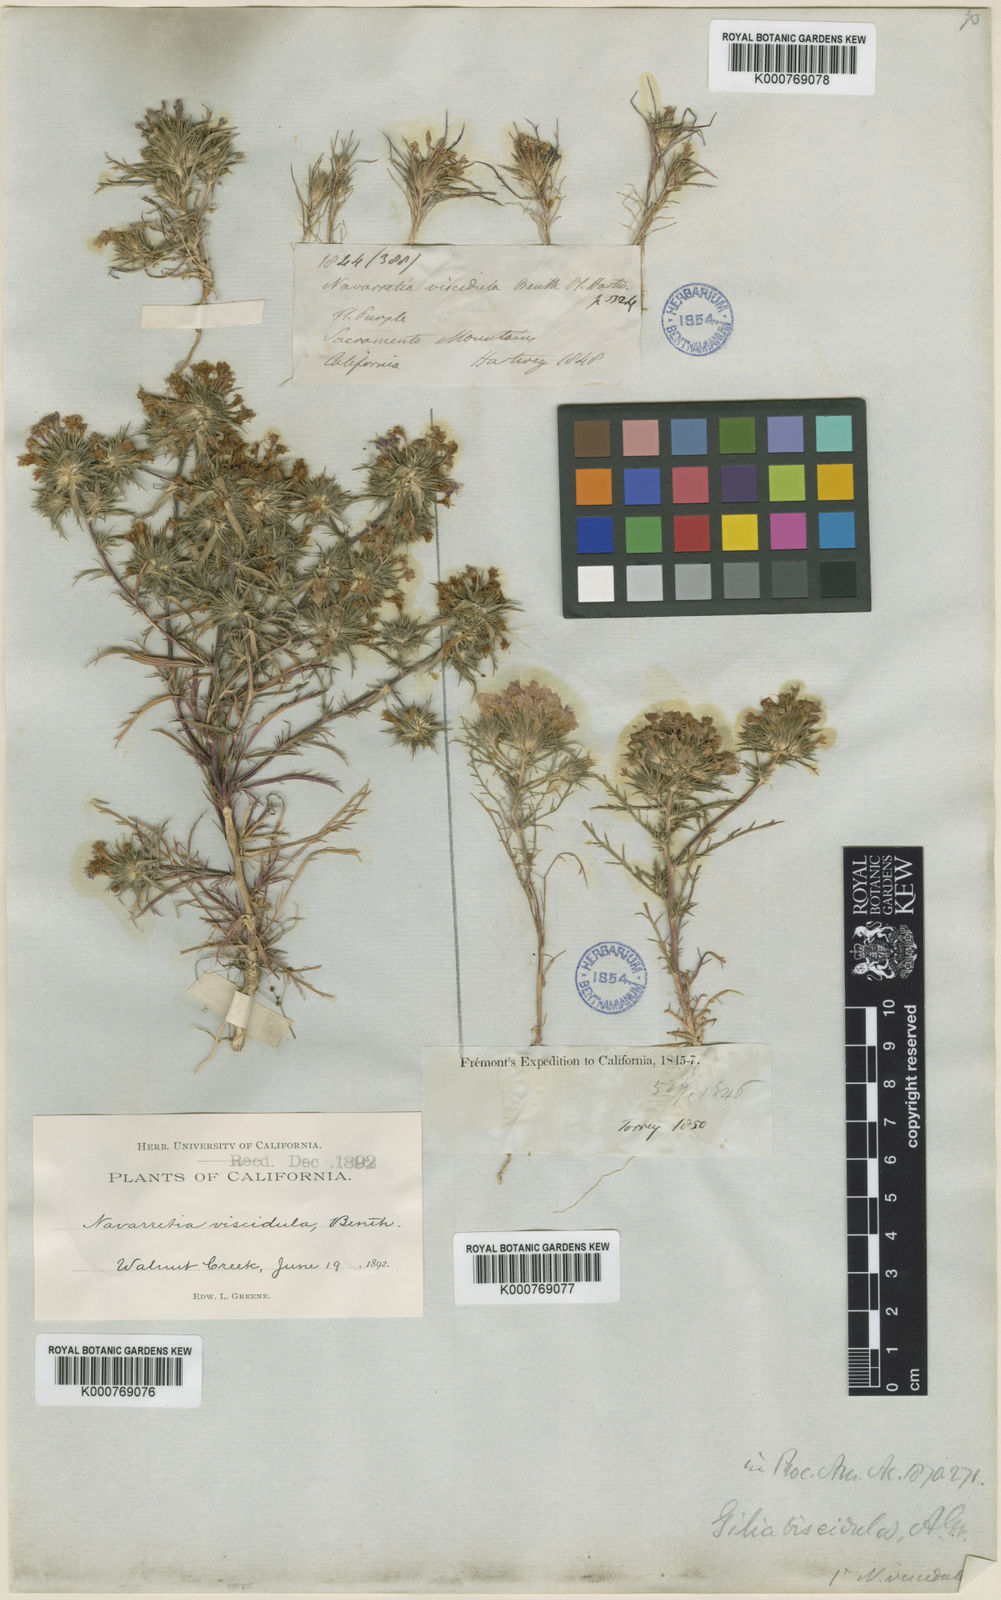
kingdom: Plantae
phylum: Tracheophyta
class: Magnoliopsida
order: Ericales
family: Polemoniaceae
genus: Navarretia
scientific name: Navarretia viscidula
